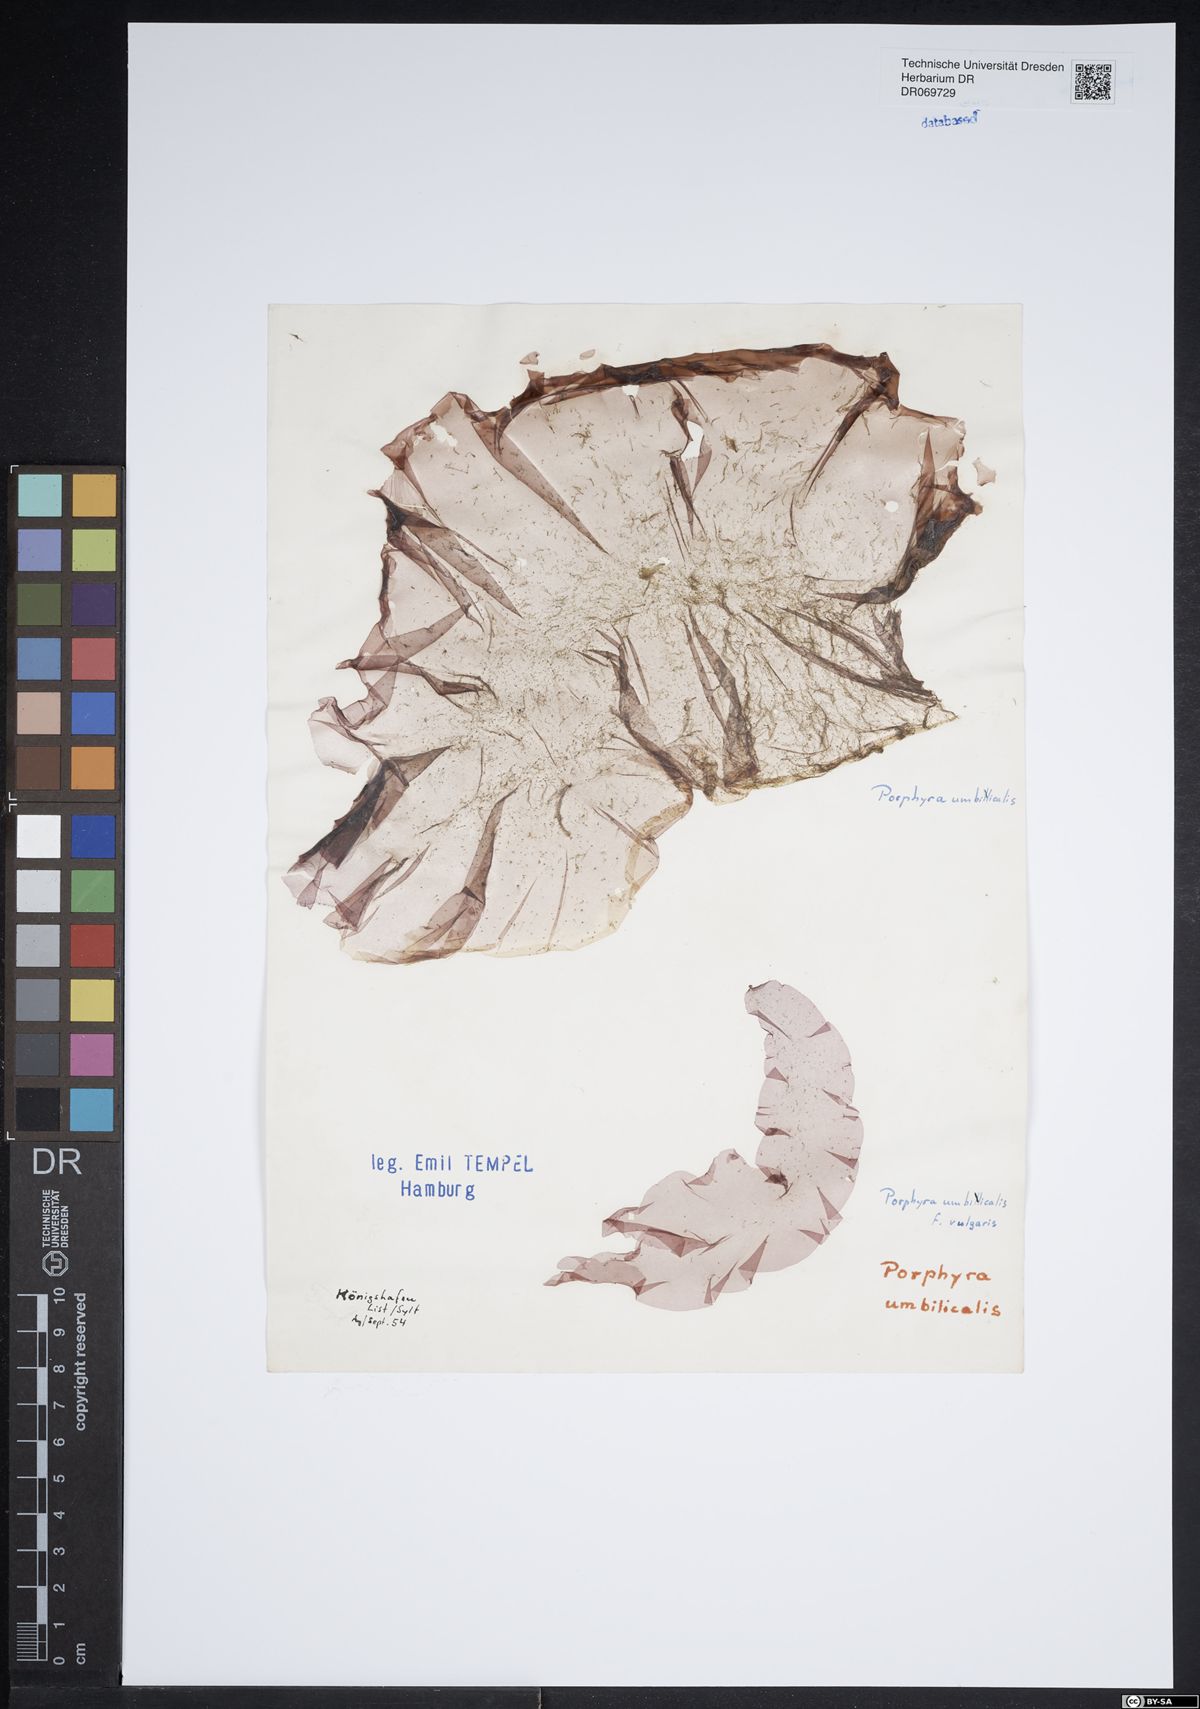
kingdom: Plantae
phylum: Rhodophyta
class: Bangiophyceae
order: Bangiales
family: Bangiaceae
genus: Porphyra
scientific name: Porphyra
